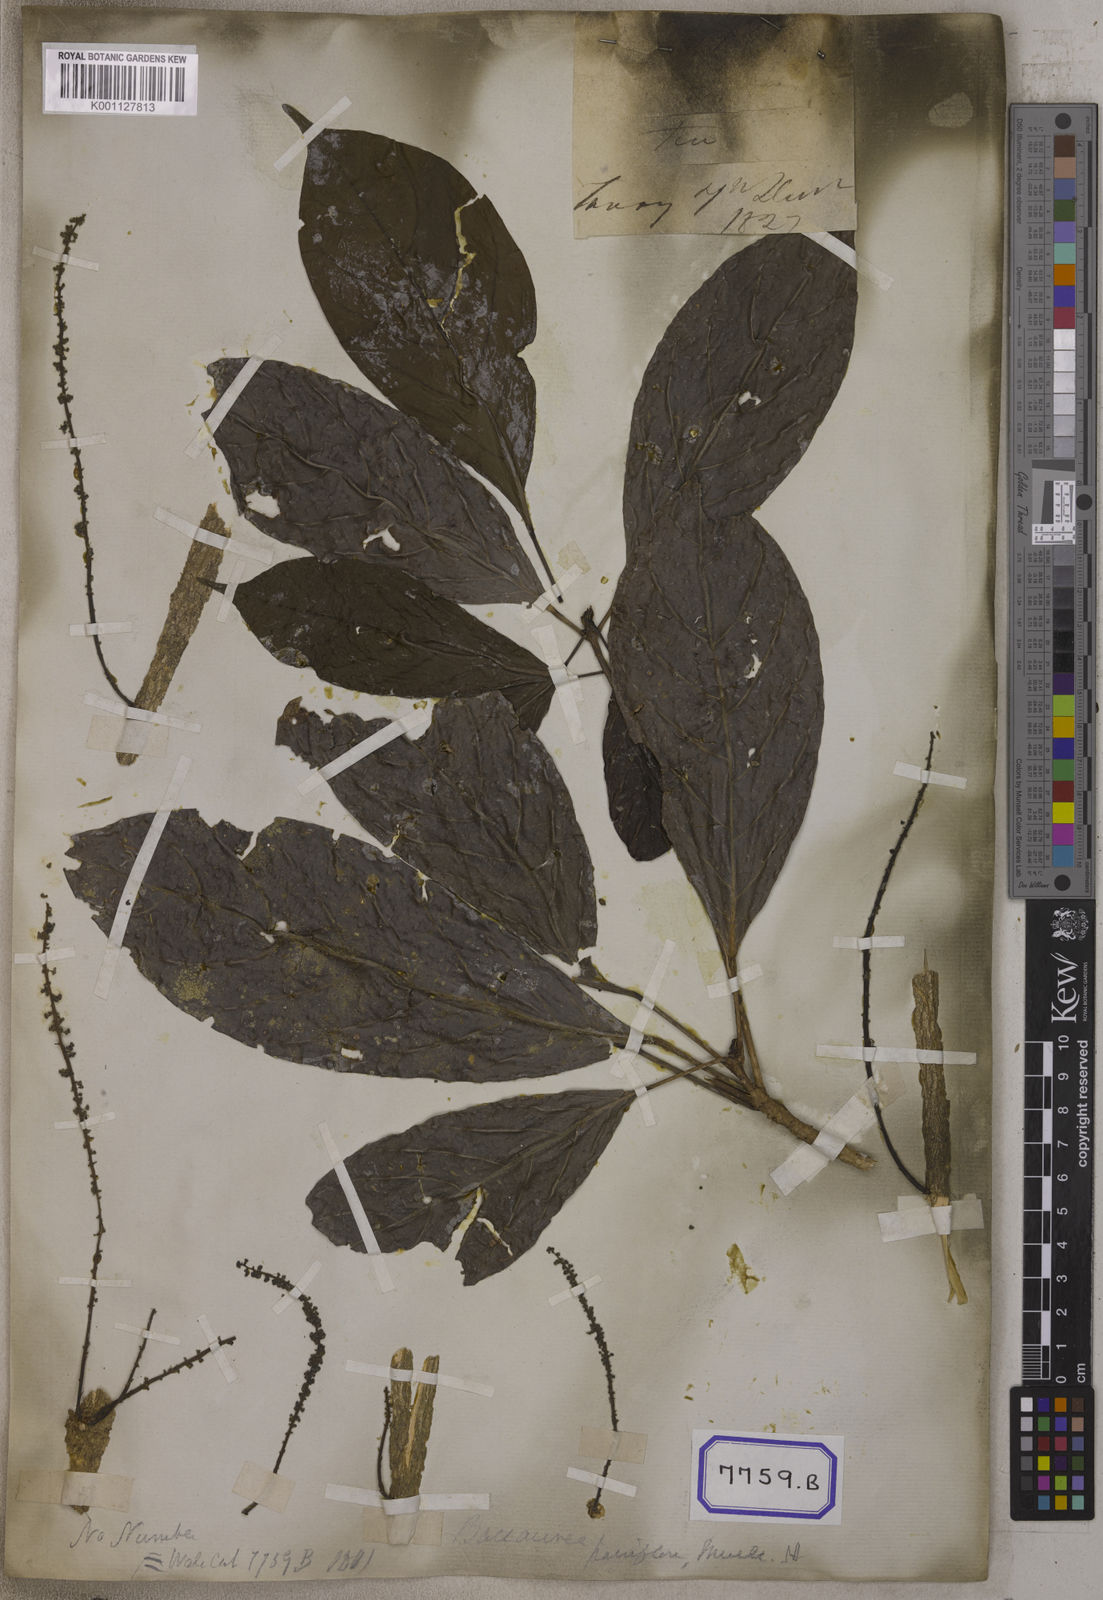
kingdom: Plantae
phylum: Tracheophyta
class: Magnoliopsida
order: Malpighiales
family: Euphorbiaceae
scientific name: Euphorbiaceae
